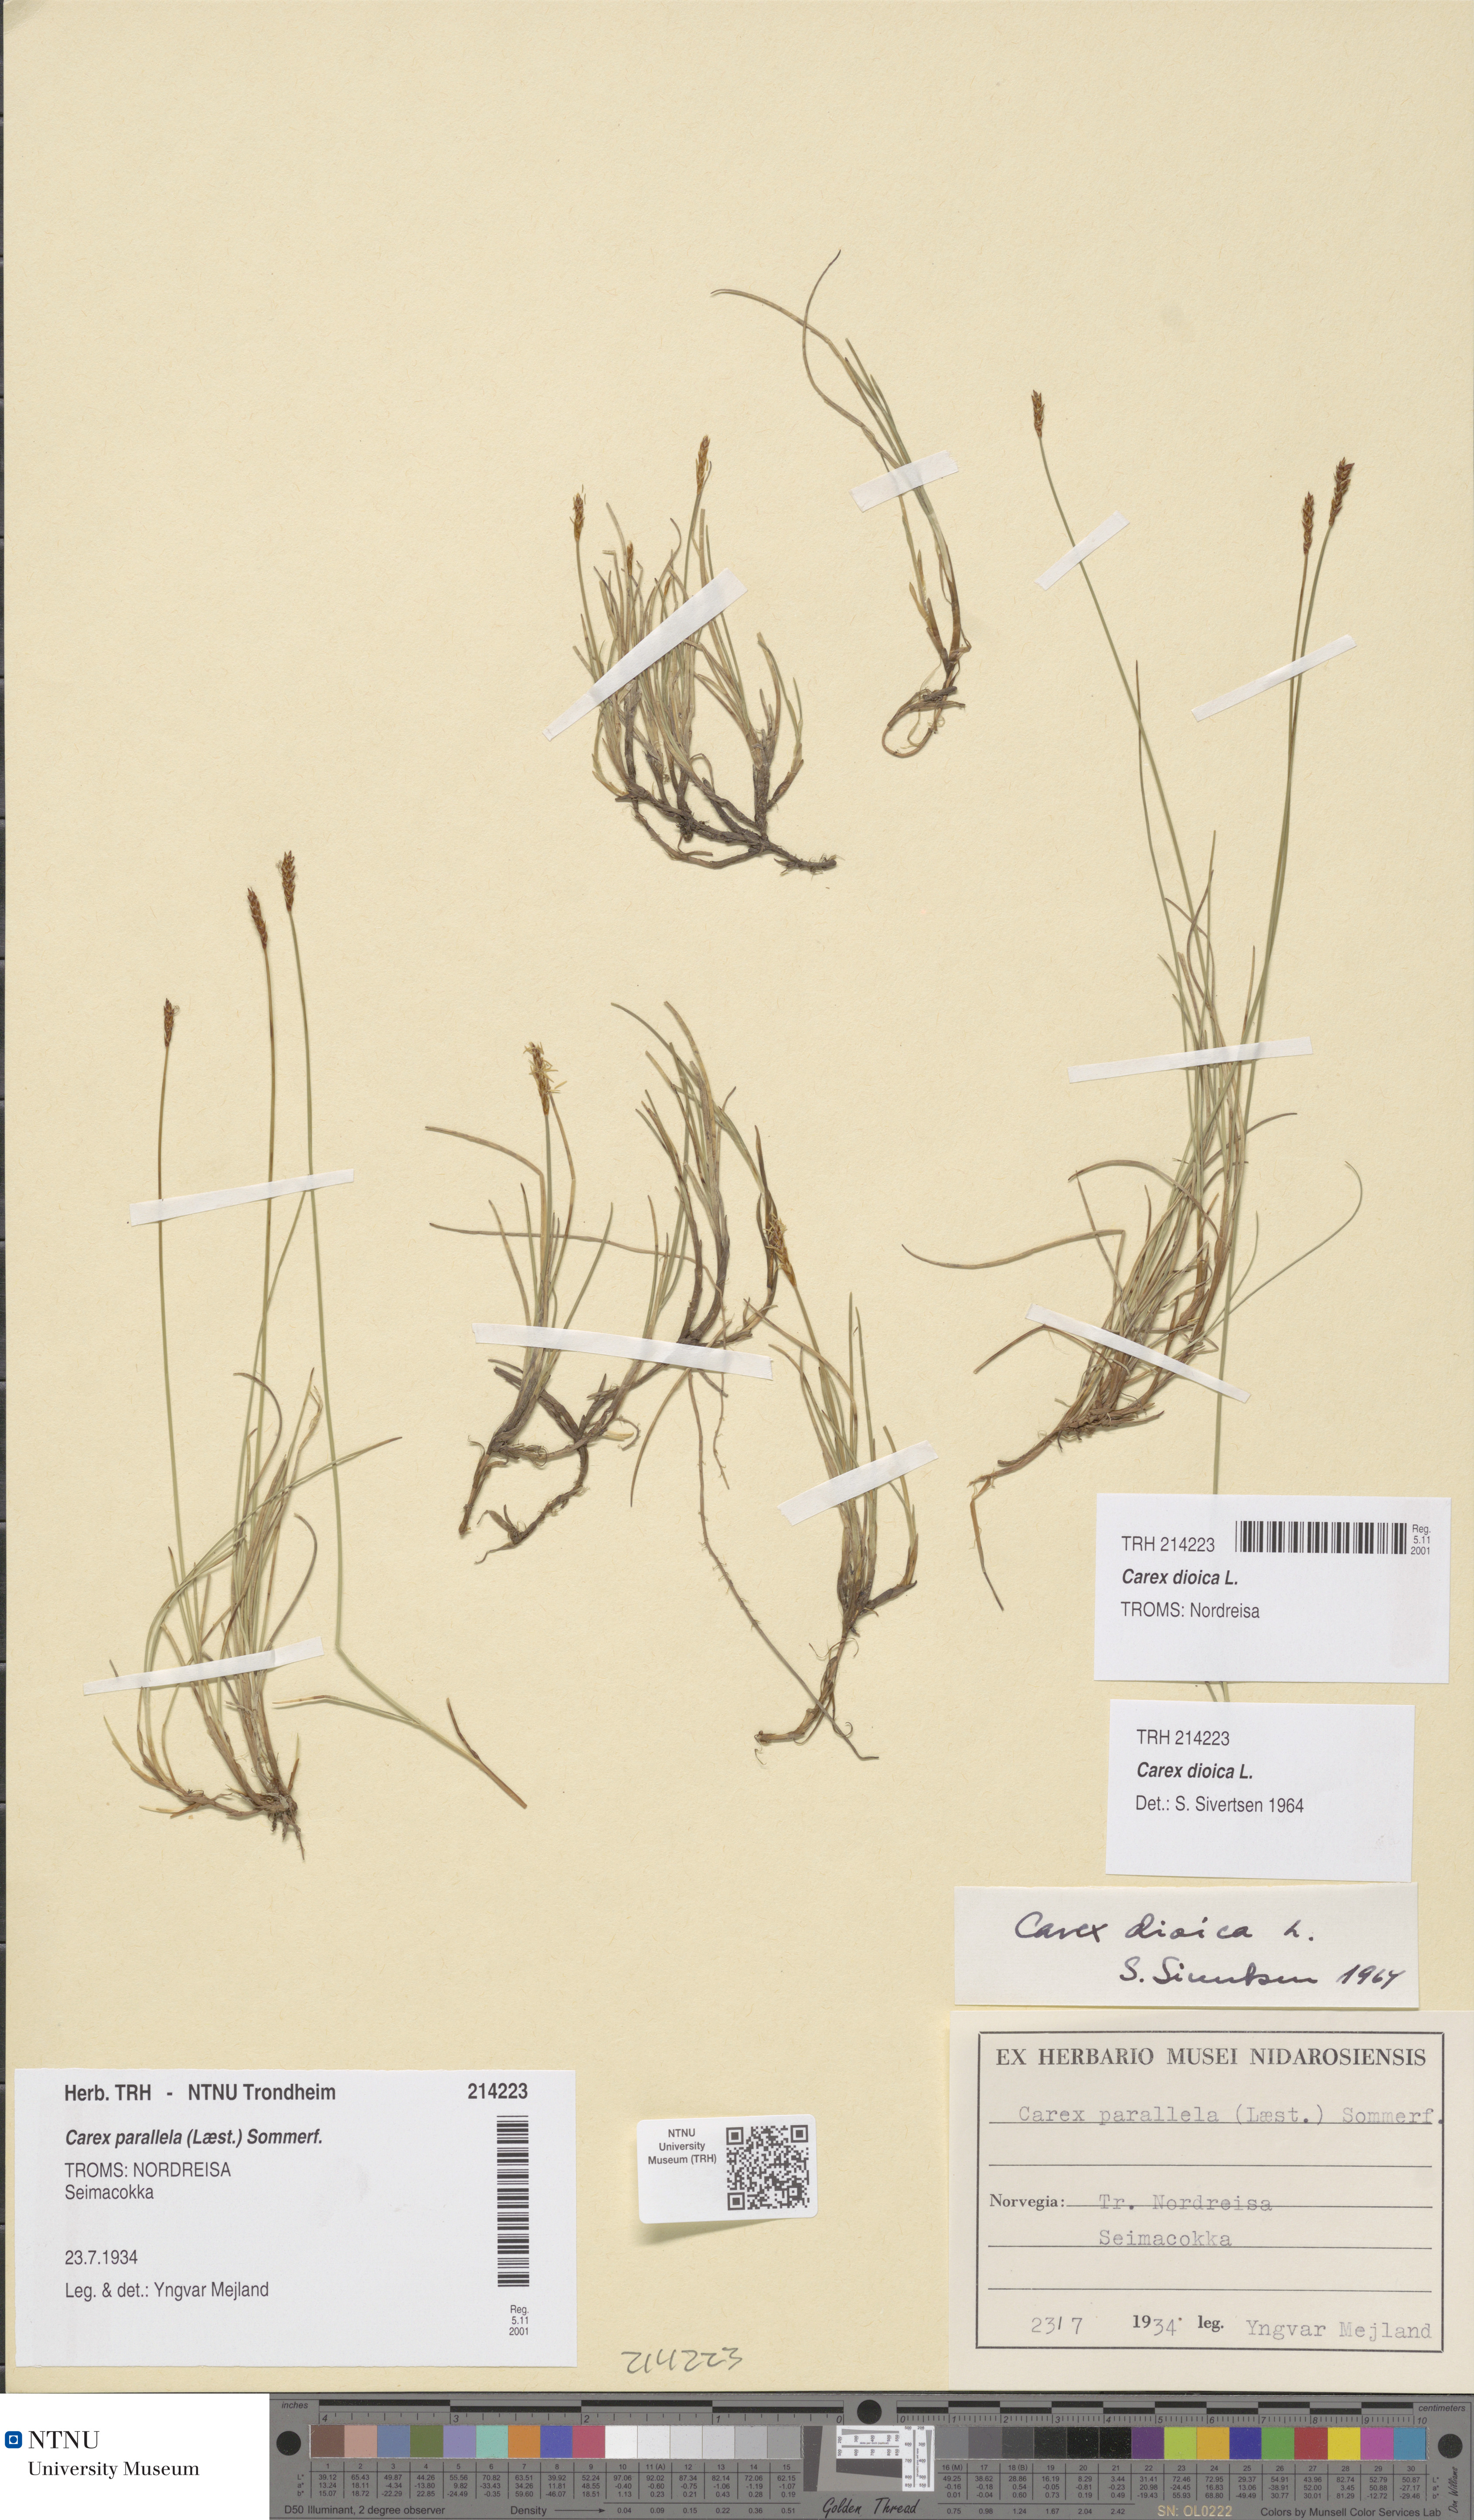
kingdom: Plantae
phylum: Tracheophyta
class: Liliopsida
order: Poales
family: Cyperaceae
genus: Carex
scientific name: Carex dioica
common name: Dioecious sedge
